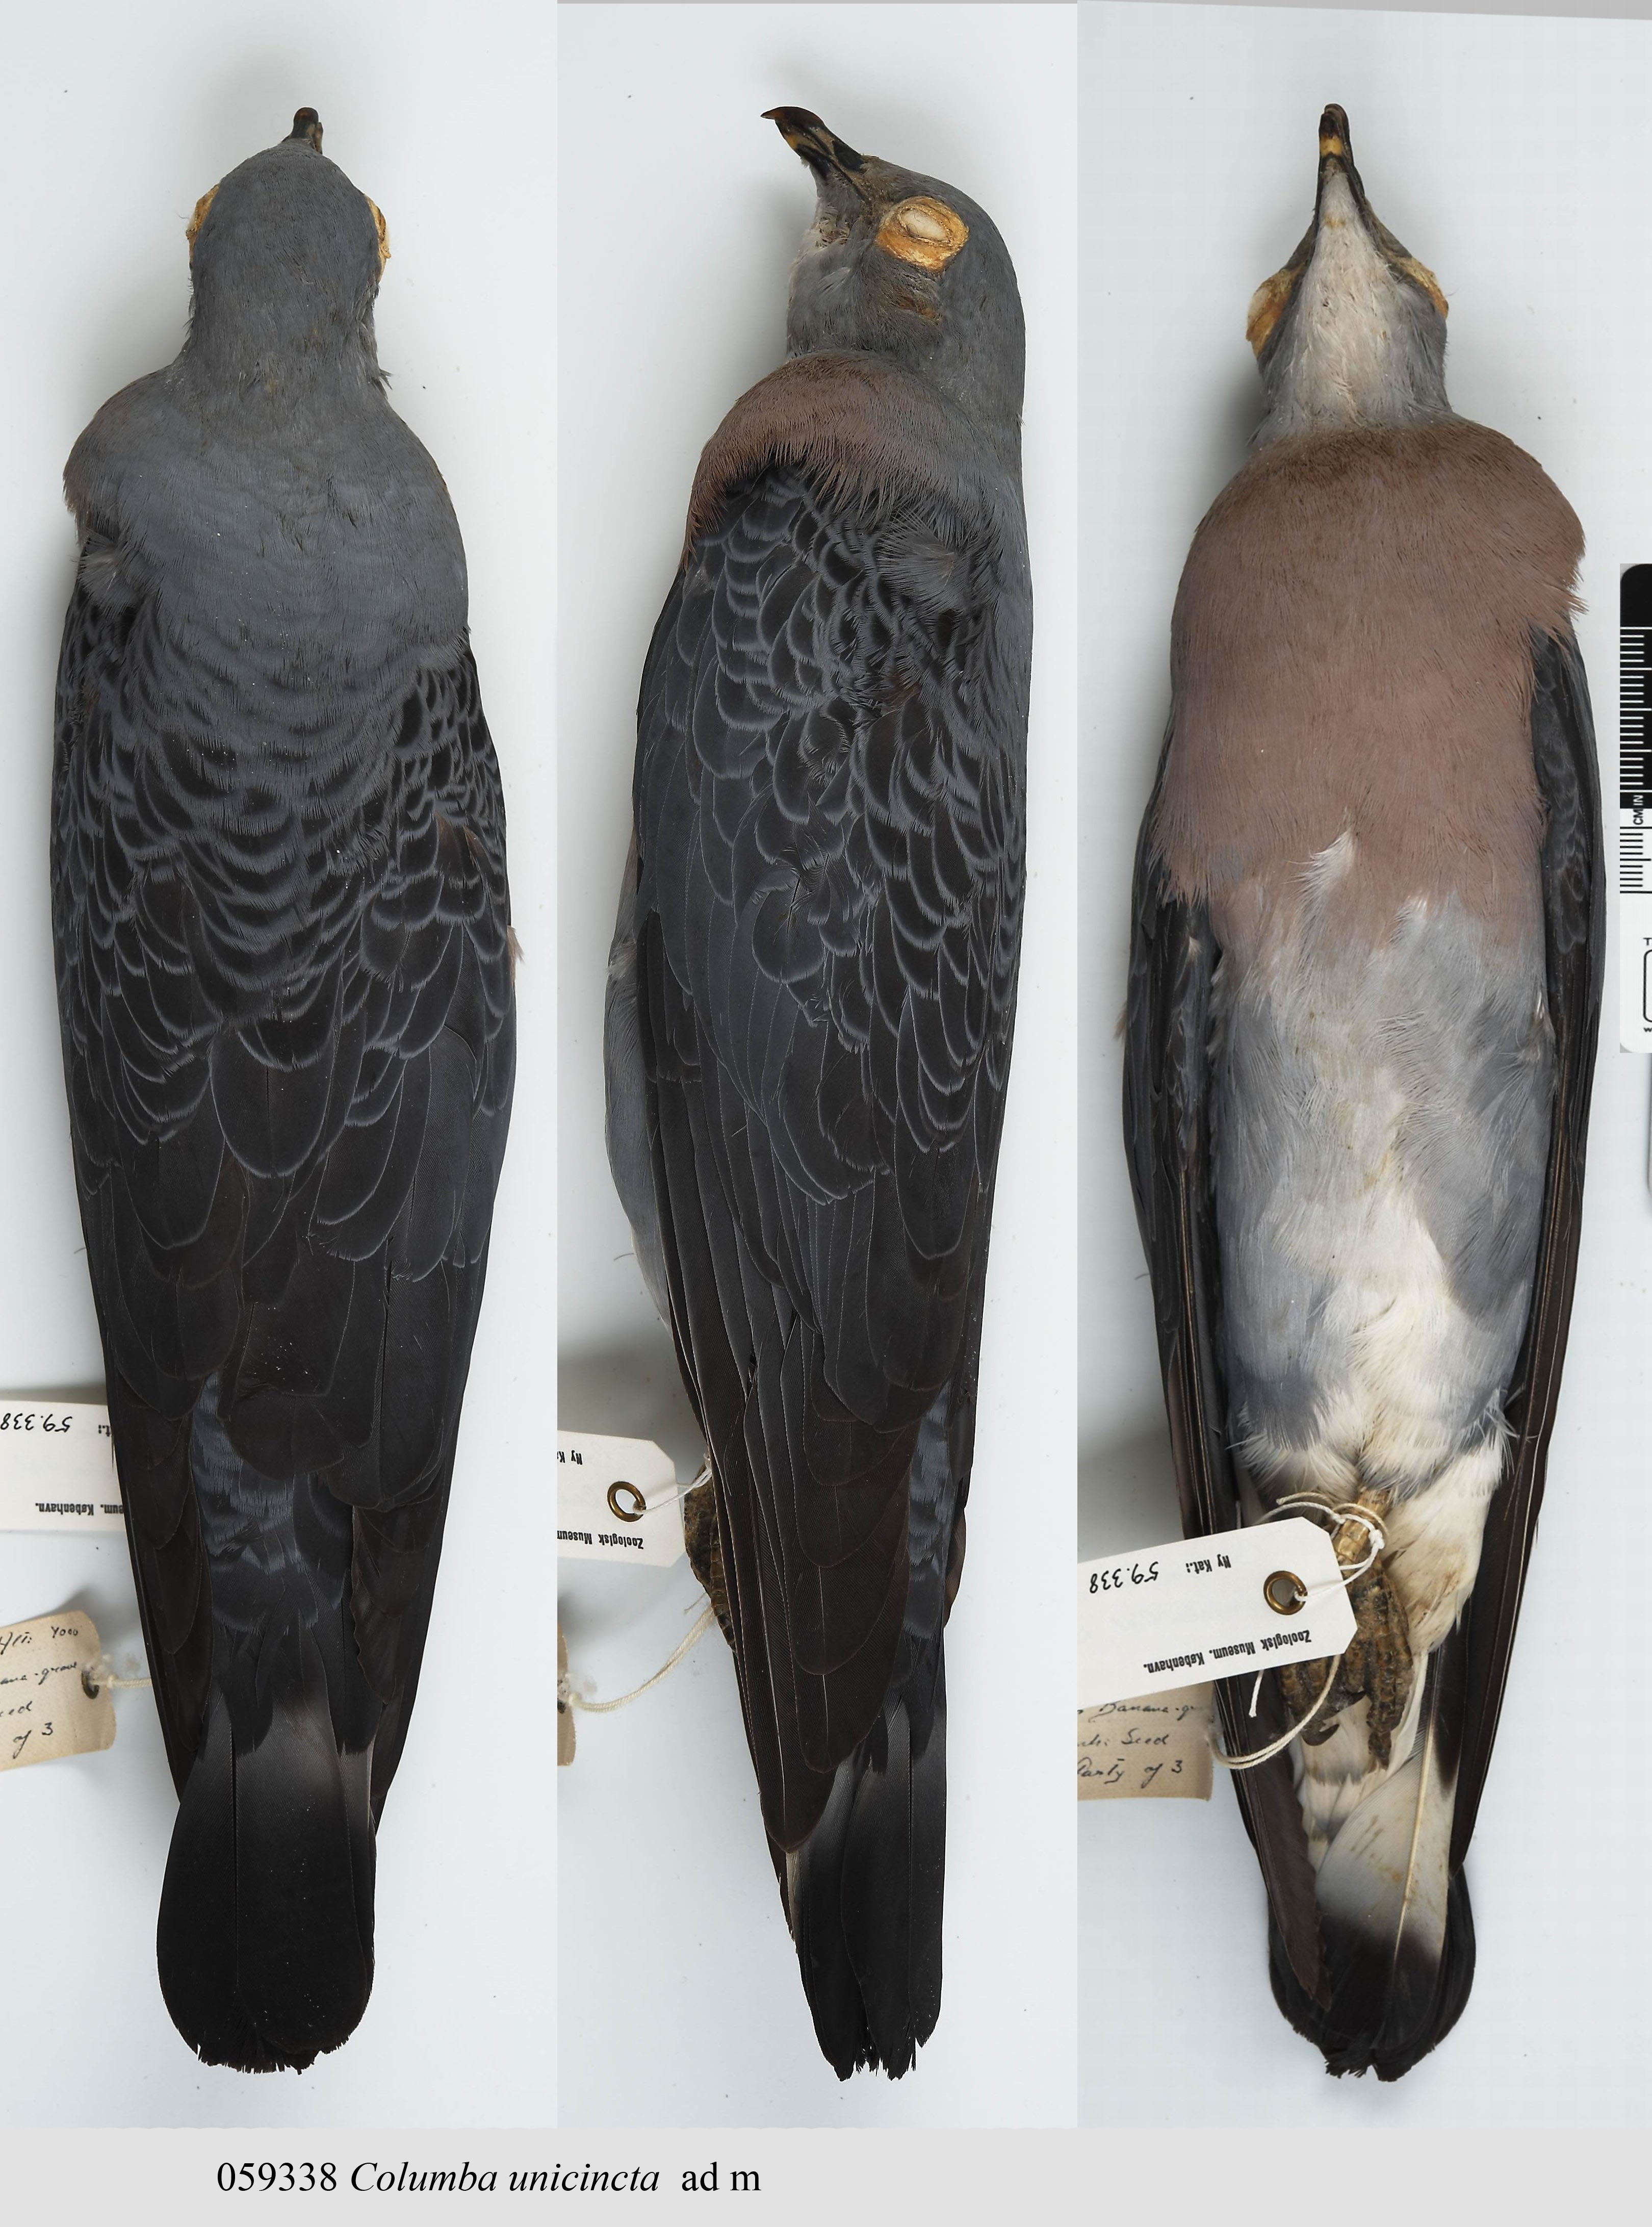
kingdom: Animalia
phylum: Chordata
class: Aves
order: Columbiformes
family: Columbidae
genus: Columba
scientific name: Columba unicincta
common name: Afep pigeon
